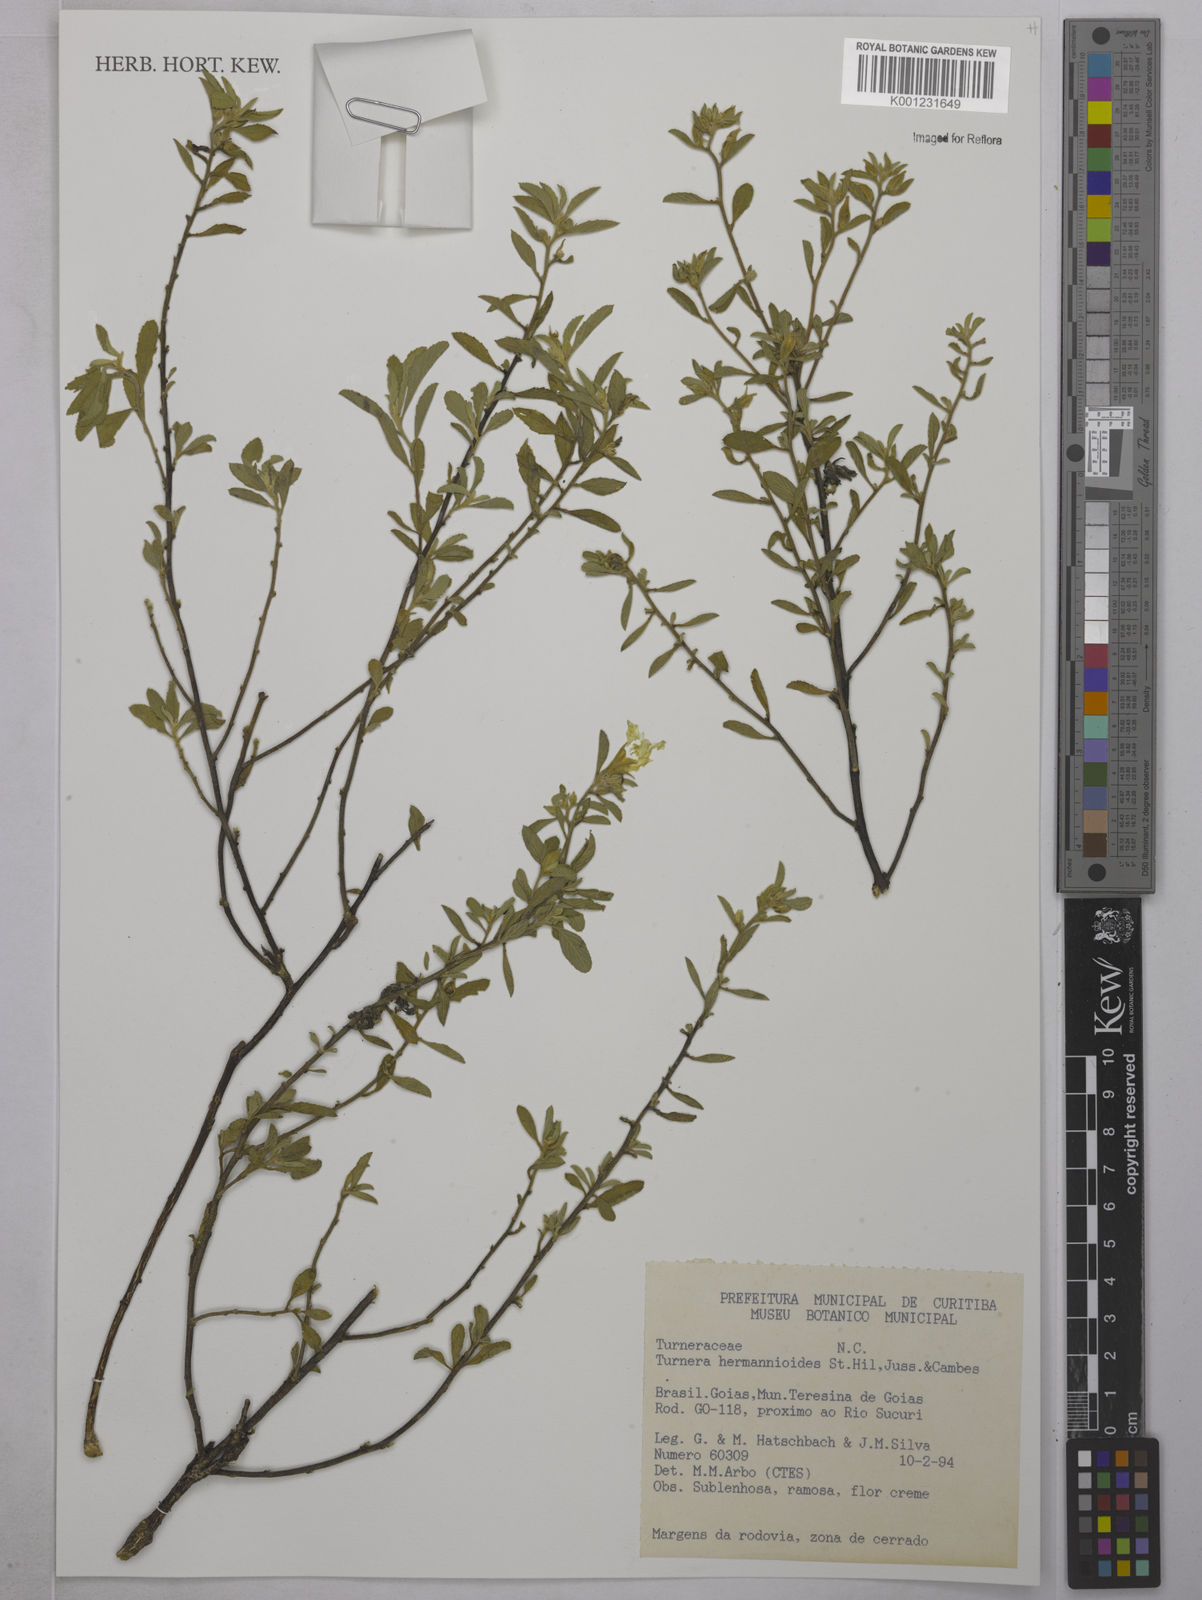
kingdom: Plantae
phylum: Tracheophyta
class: Magnoliopsida
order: Malpighiales
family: Turneraceae
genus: Turnera
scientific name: Turnera hermannioides
